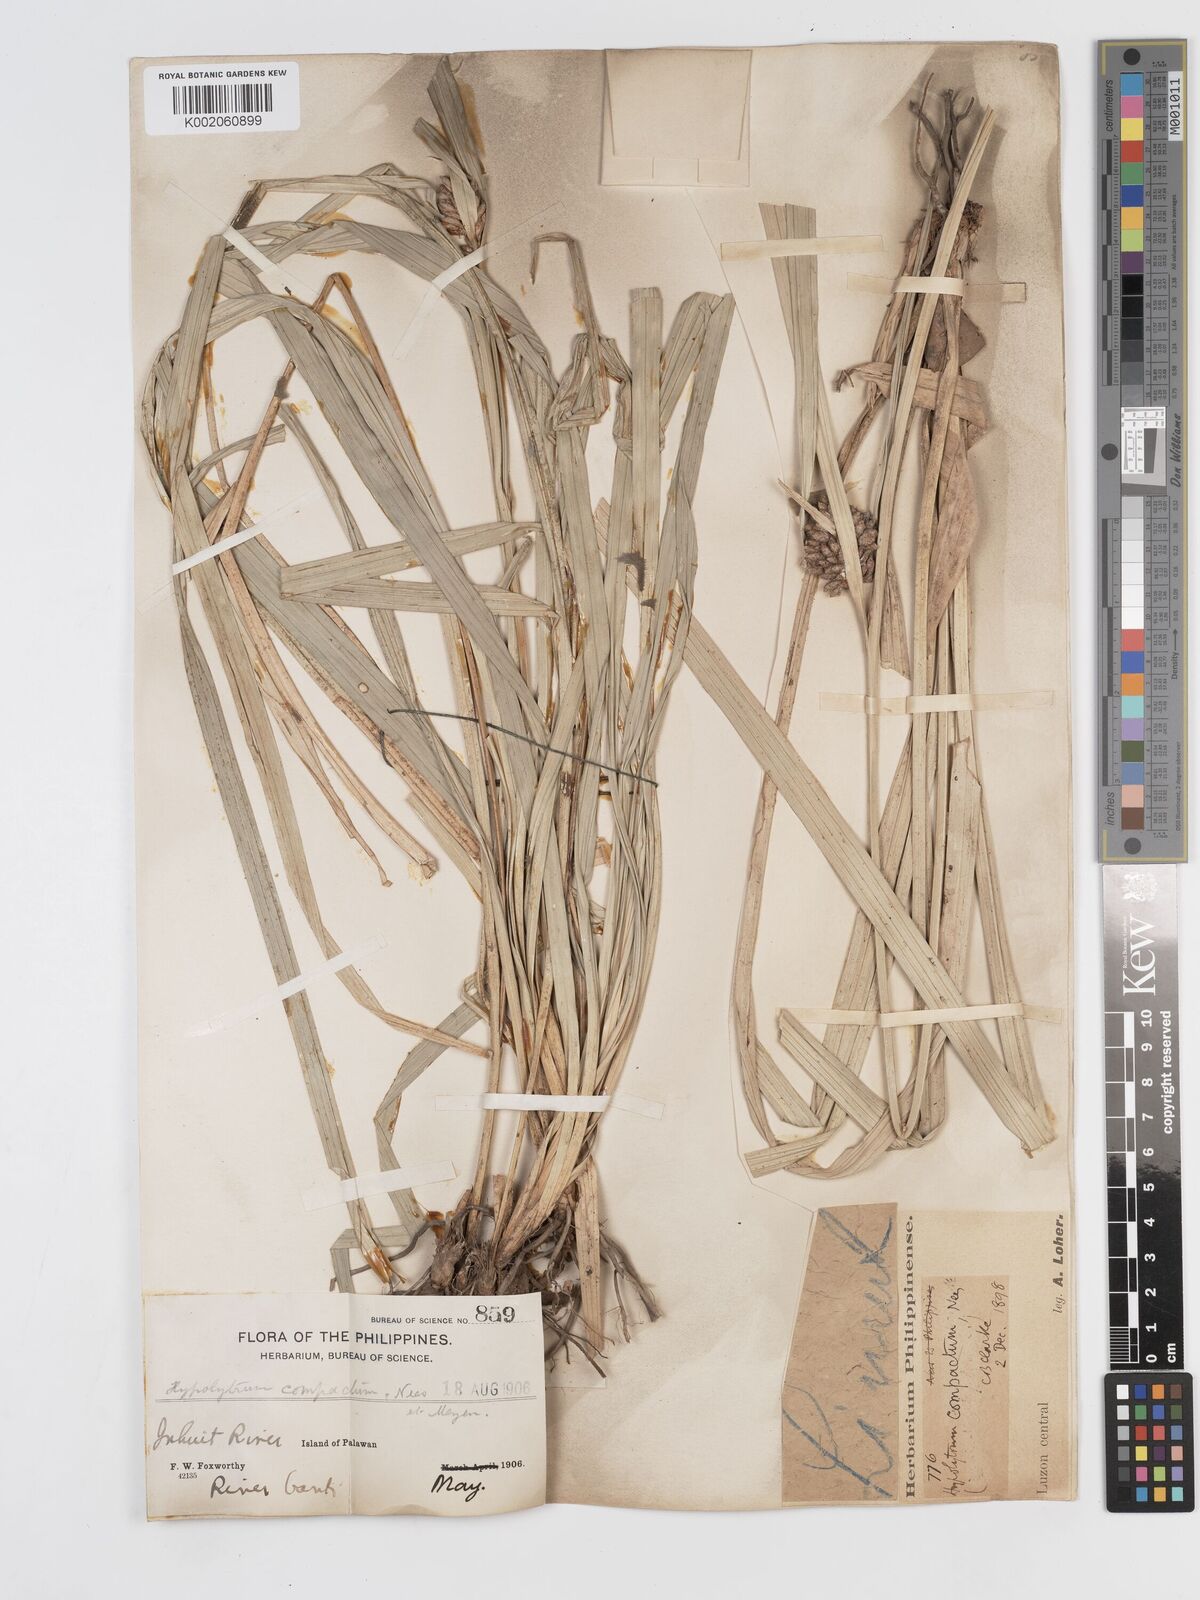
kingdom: Plantae
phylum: Tracheophyta
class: Liliopsida
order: Poales
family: Cyperaceae
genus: Hypolytrum
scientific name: Hypolytrum compactum
